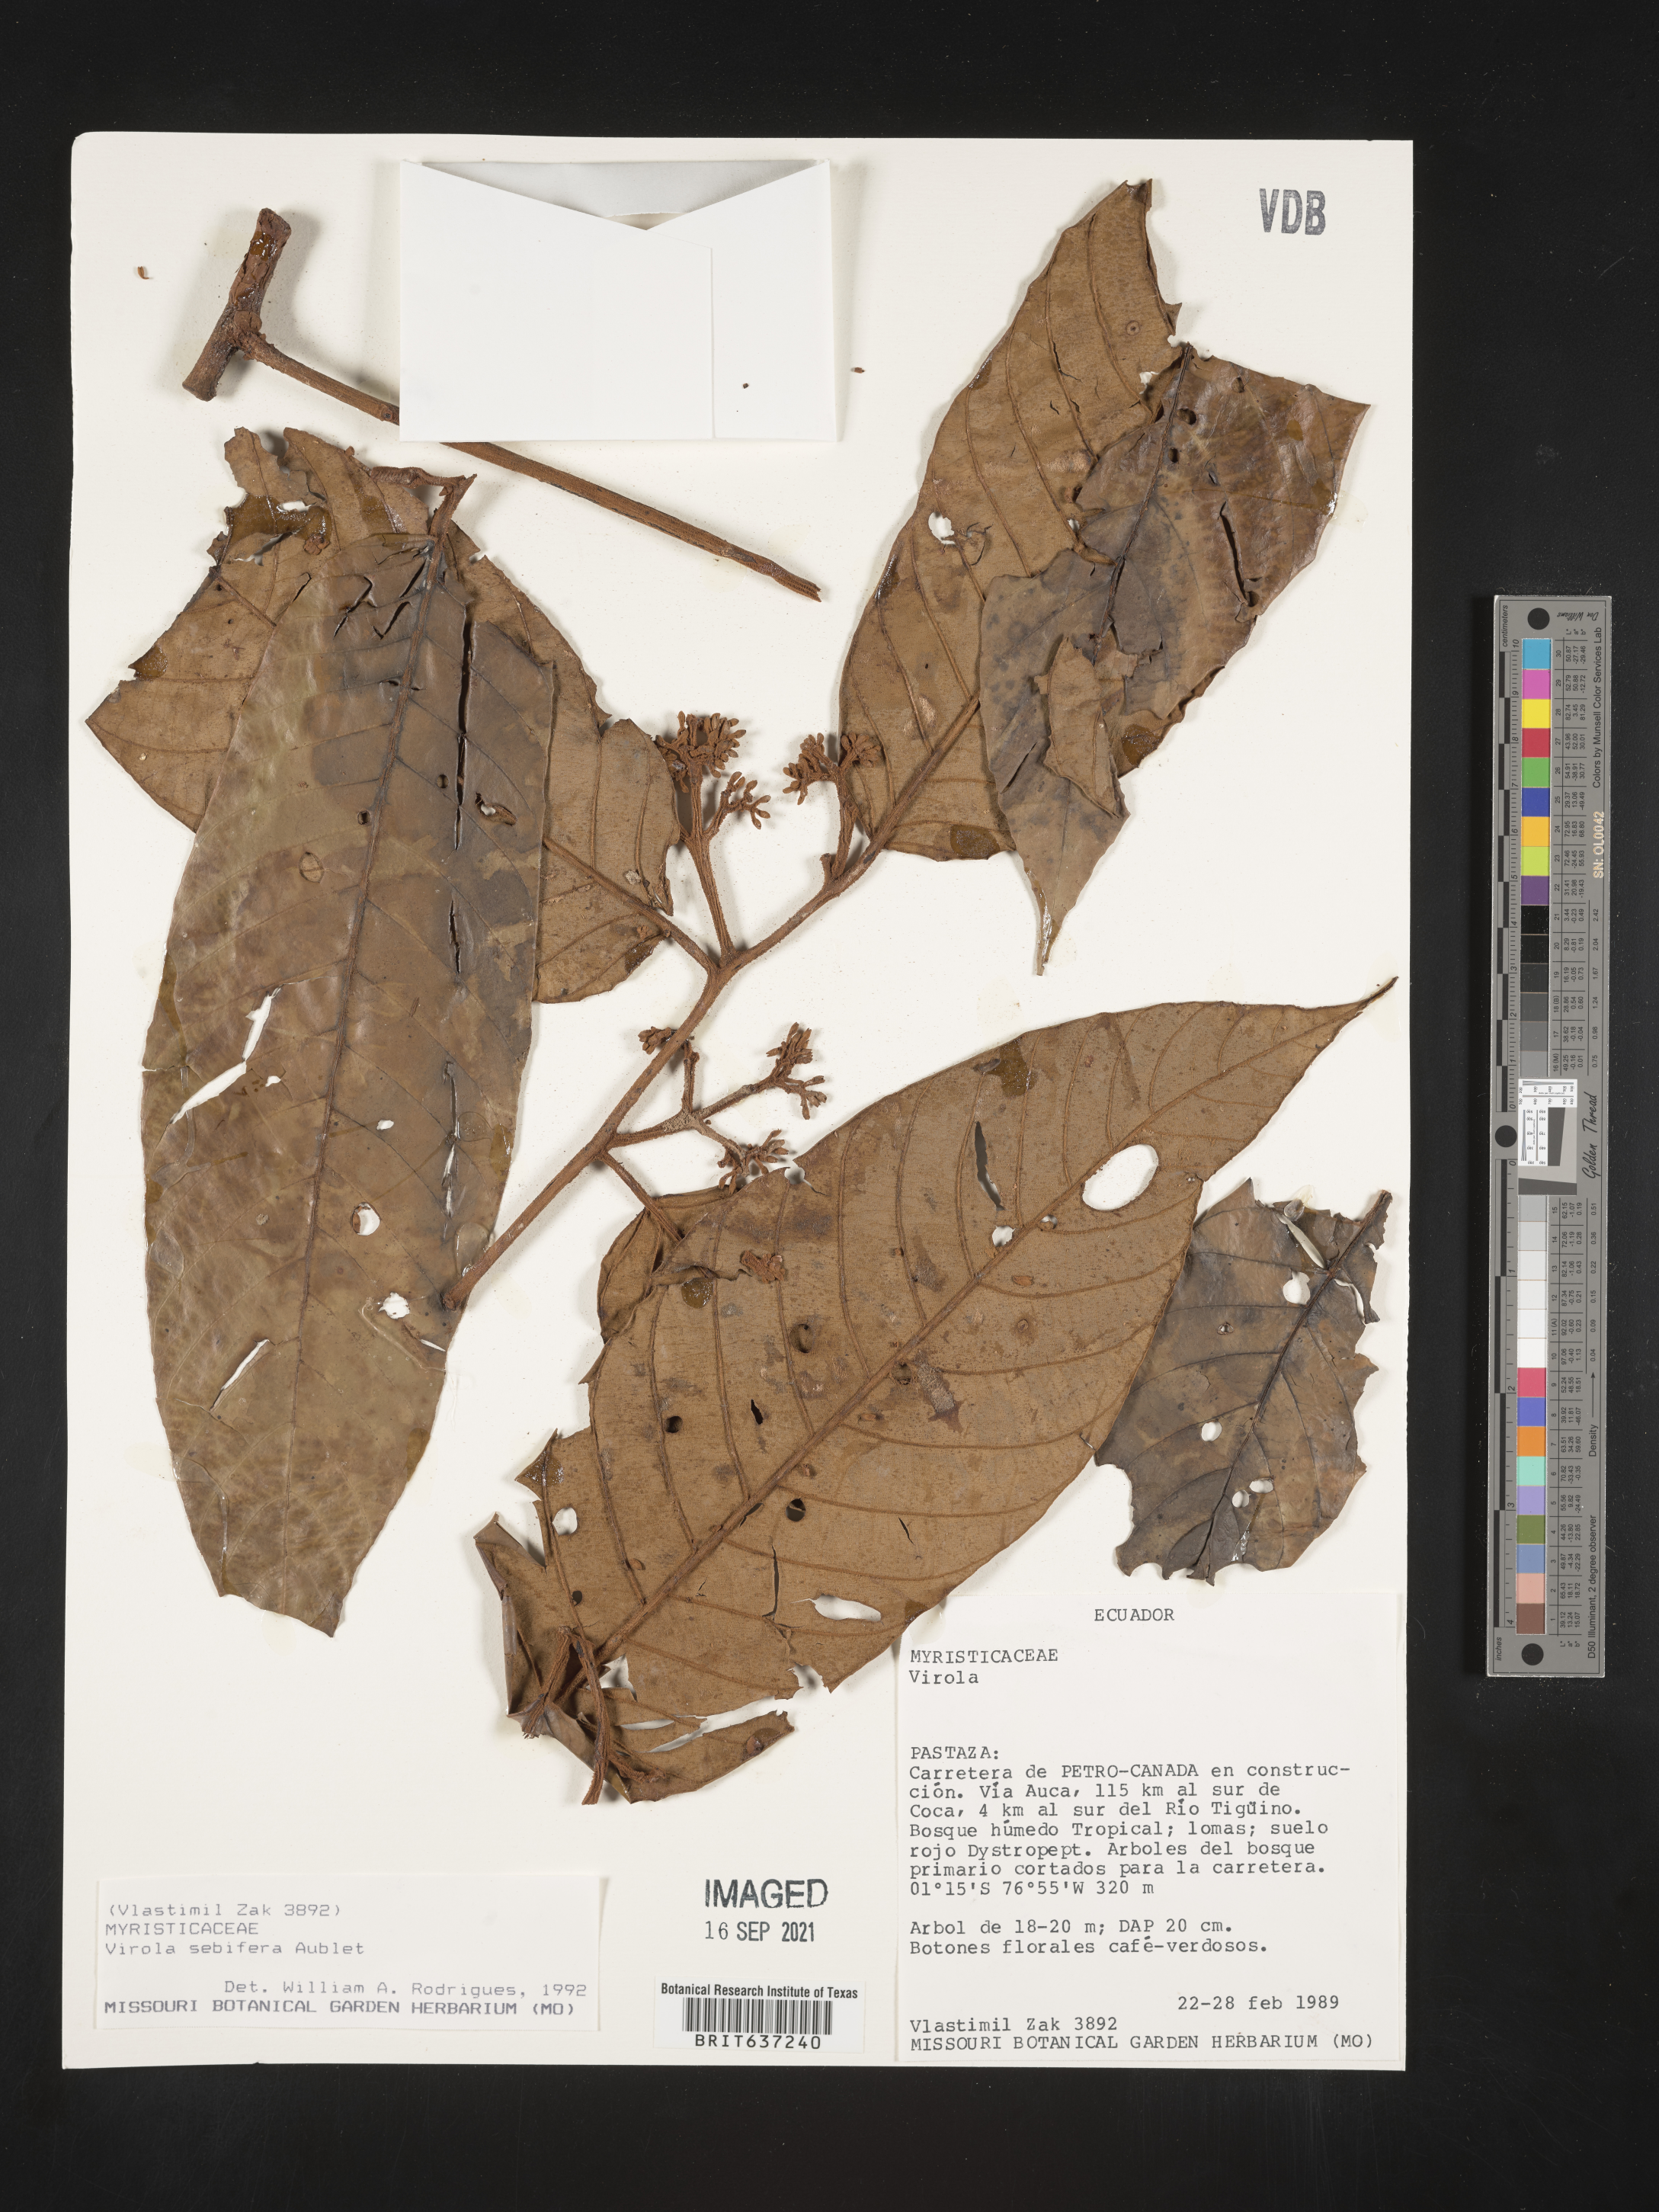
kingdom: Plantae
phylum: Tracheophyta
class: Magnoliopsida
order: Magnoliales
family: Myristicaceae
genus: Virola
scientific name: Virola
